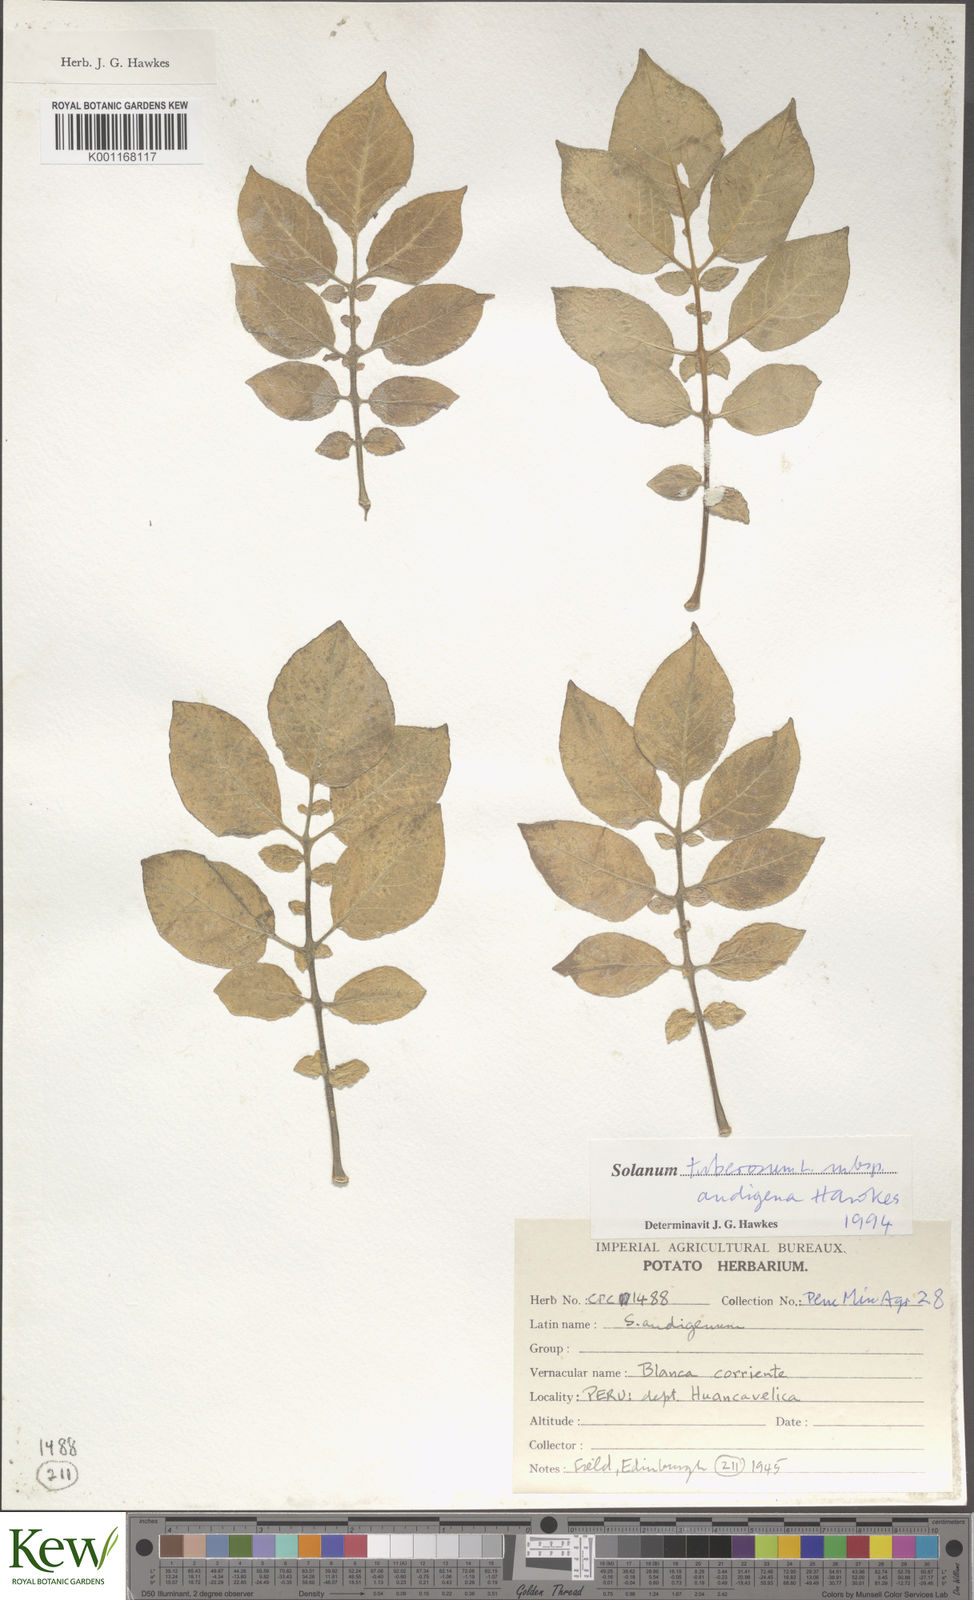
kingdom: Plantae
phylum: Tracheophyta
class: Magnoliopsida
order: Solanales
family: Solanaceae
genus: Solanum
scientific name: Solanum tuberosum
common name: Potato
